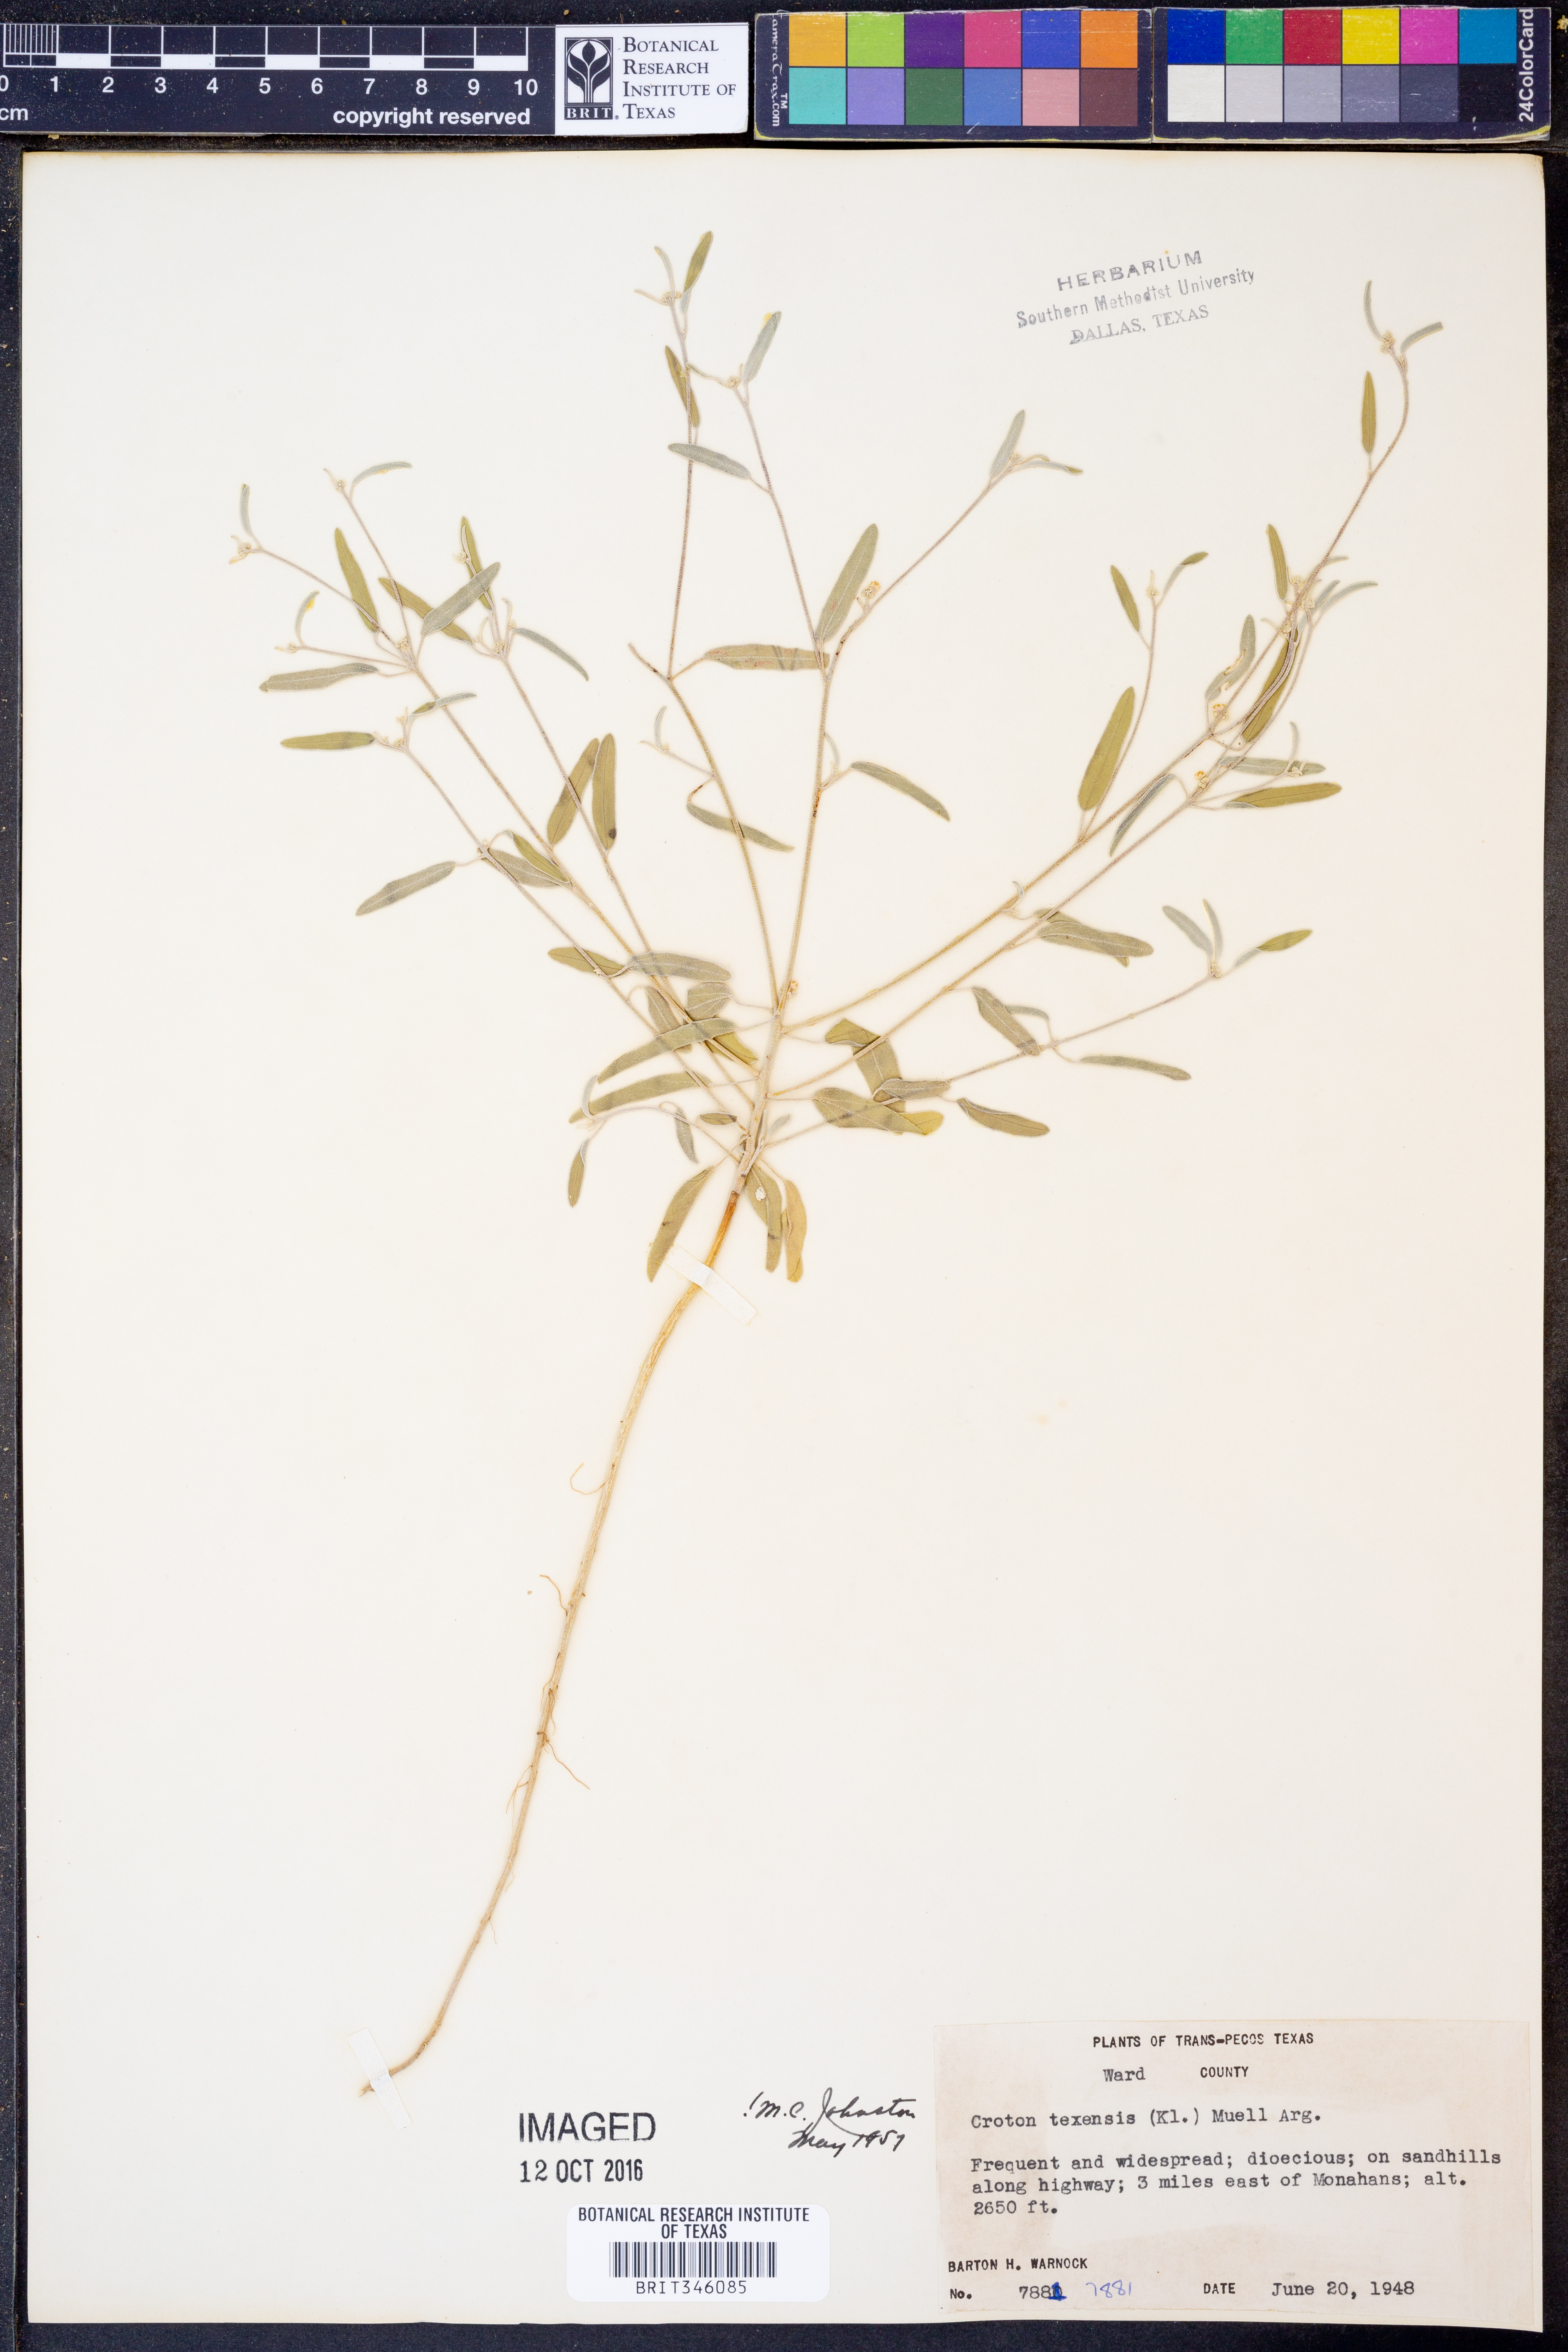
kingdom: Plantae
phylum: Tracheophyta
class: Magnoliopsida
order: Malpighiales
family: Euphorbiaceae
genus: Croton
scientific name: Croton texensis
